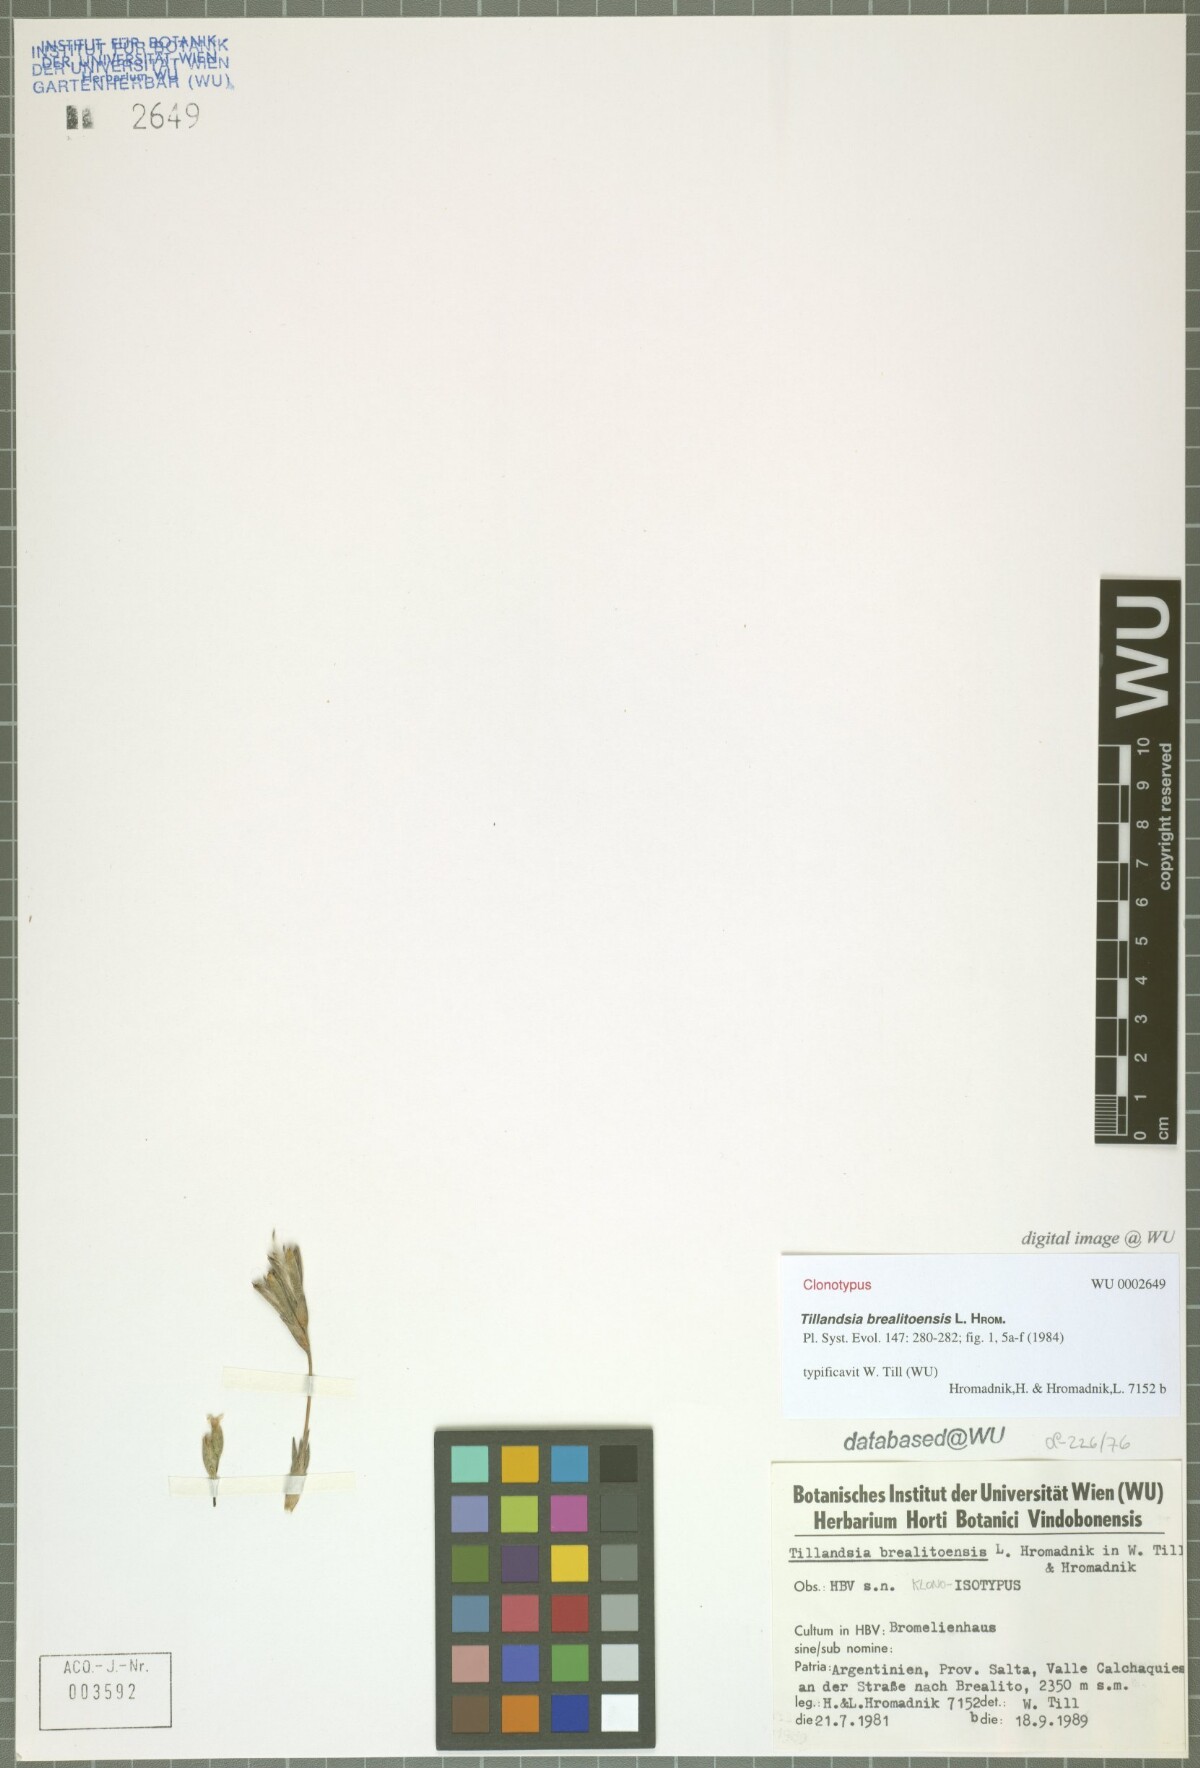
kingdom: Plantae
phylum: Tracheophyta
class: Liliopsida
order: Poales
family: Bromeliaceae
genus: Tillandsia
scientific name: Tillandsia brealitoensis
